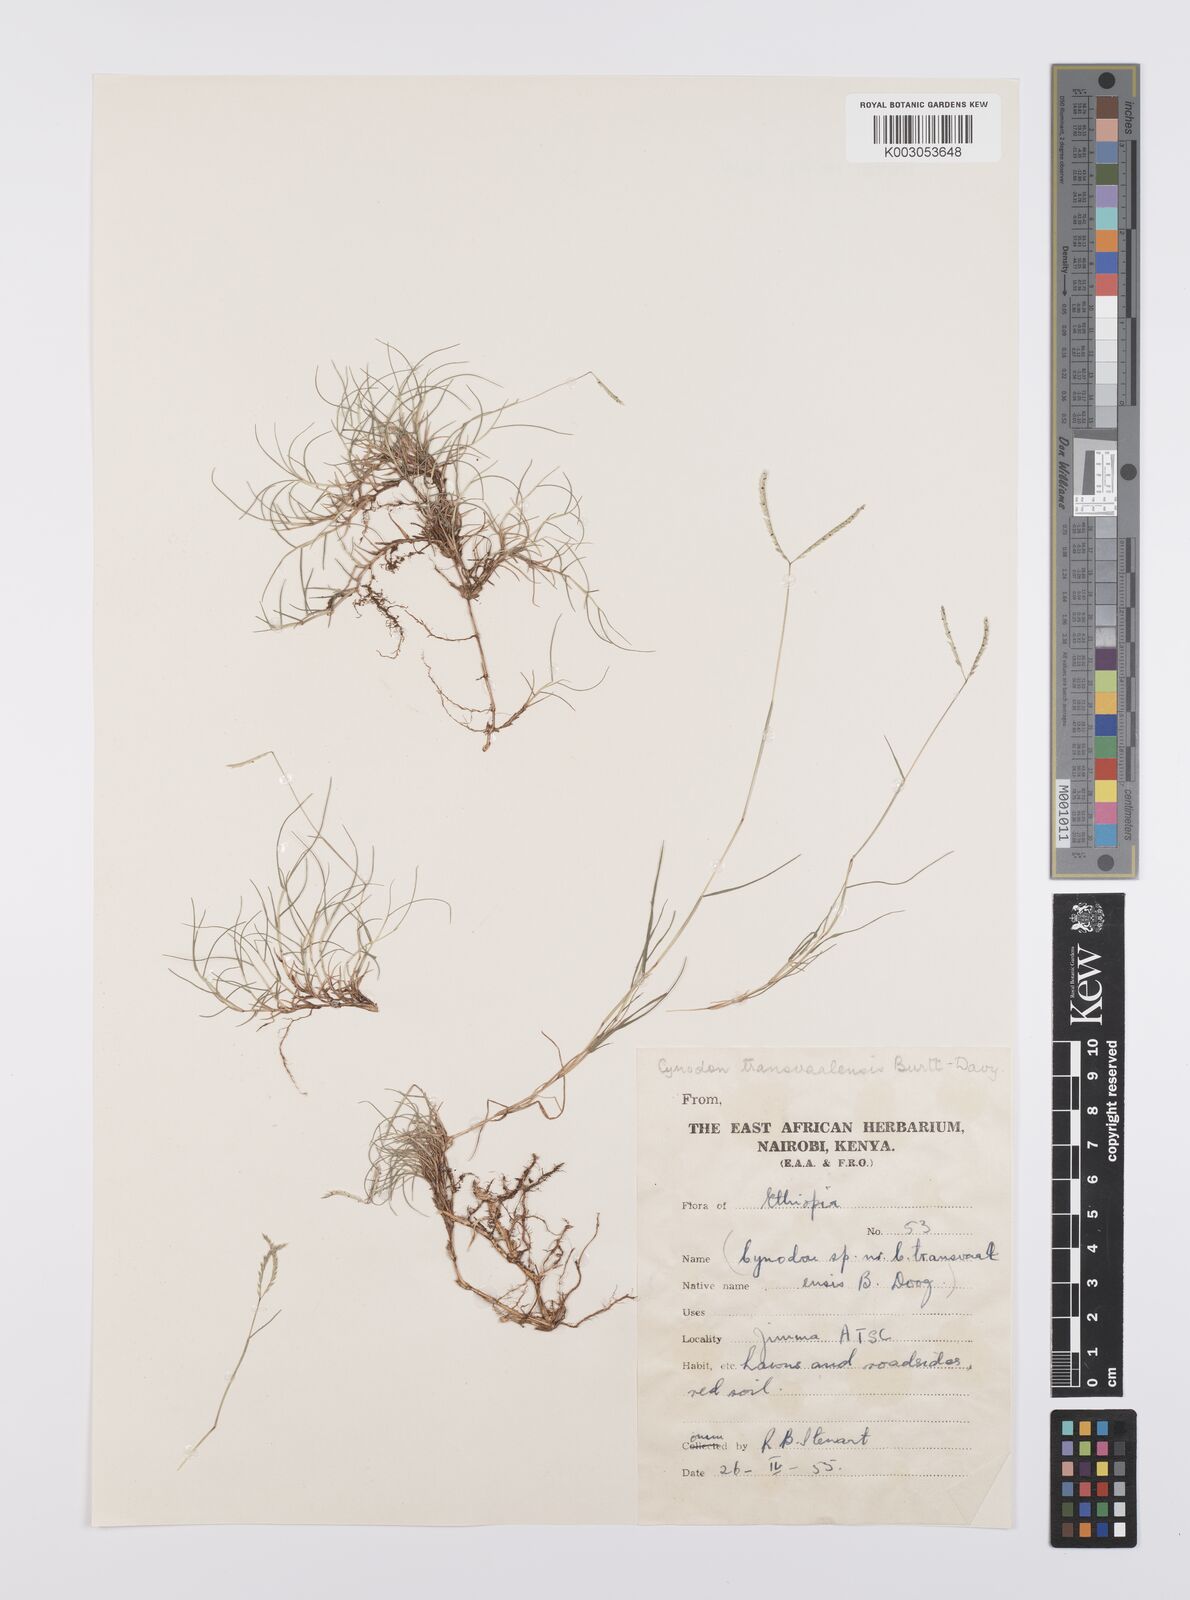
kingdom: Plantae
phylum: Tracheophyta
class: Liliopsida
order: Poales
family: Poaceae
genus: Cynodon
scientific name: Cynodon transvaalensis
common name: African bermuda grass
